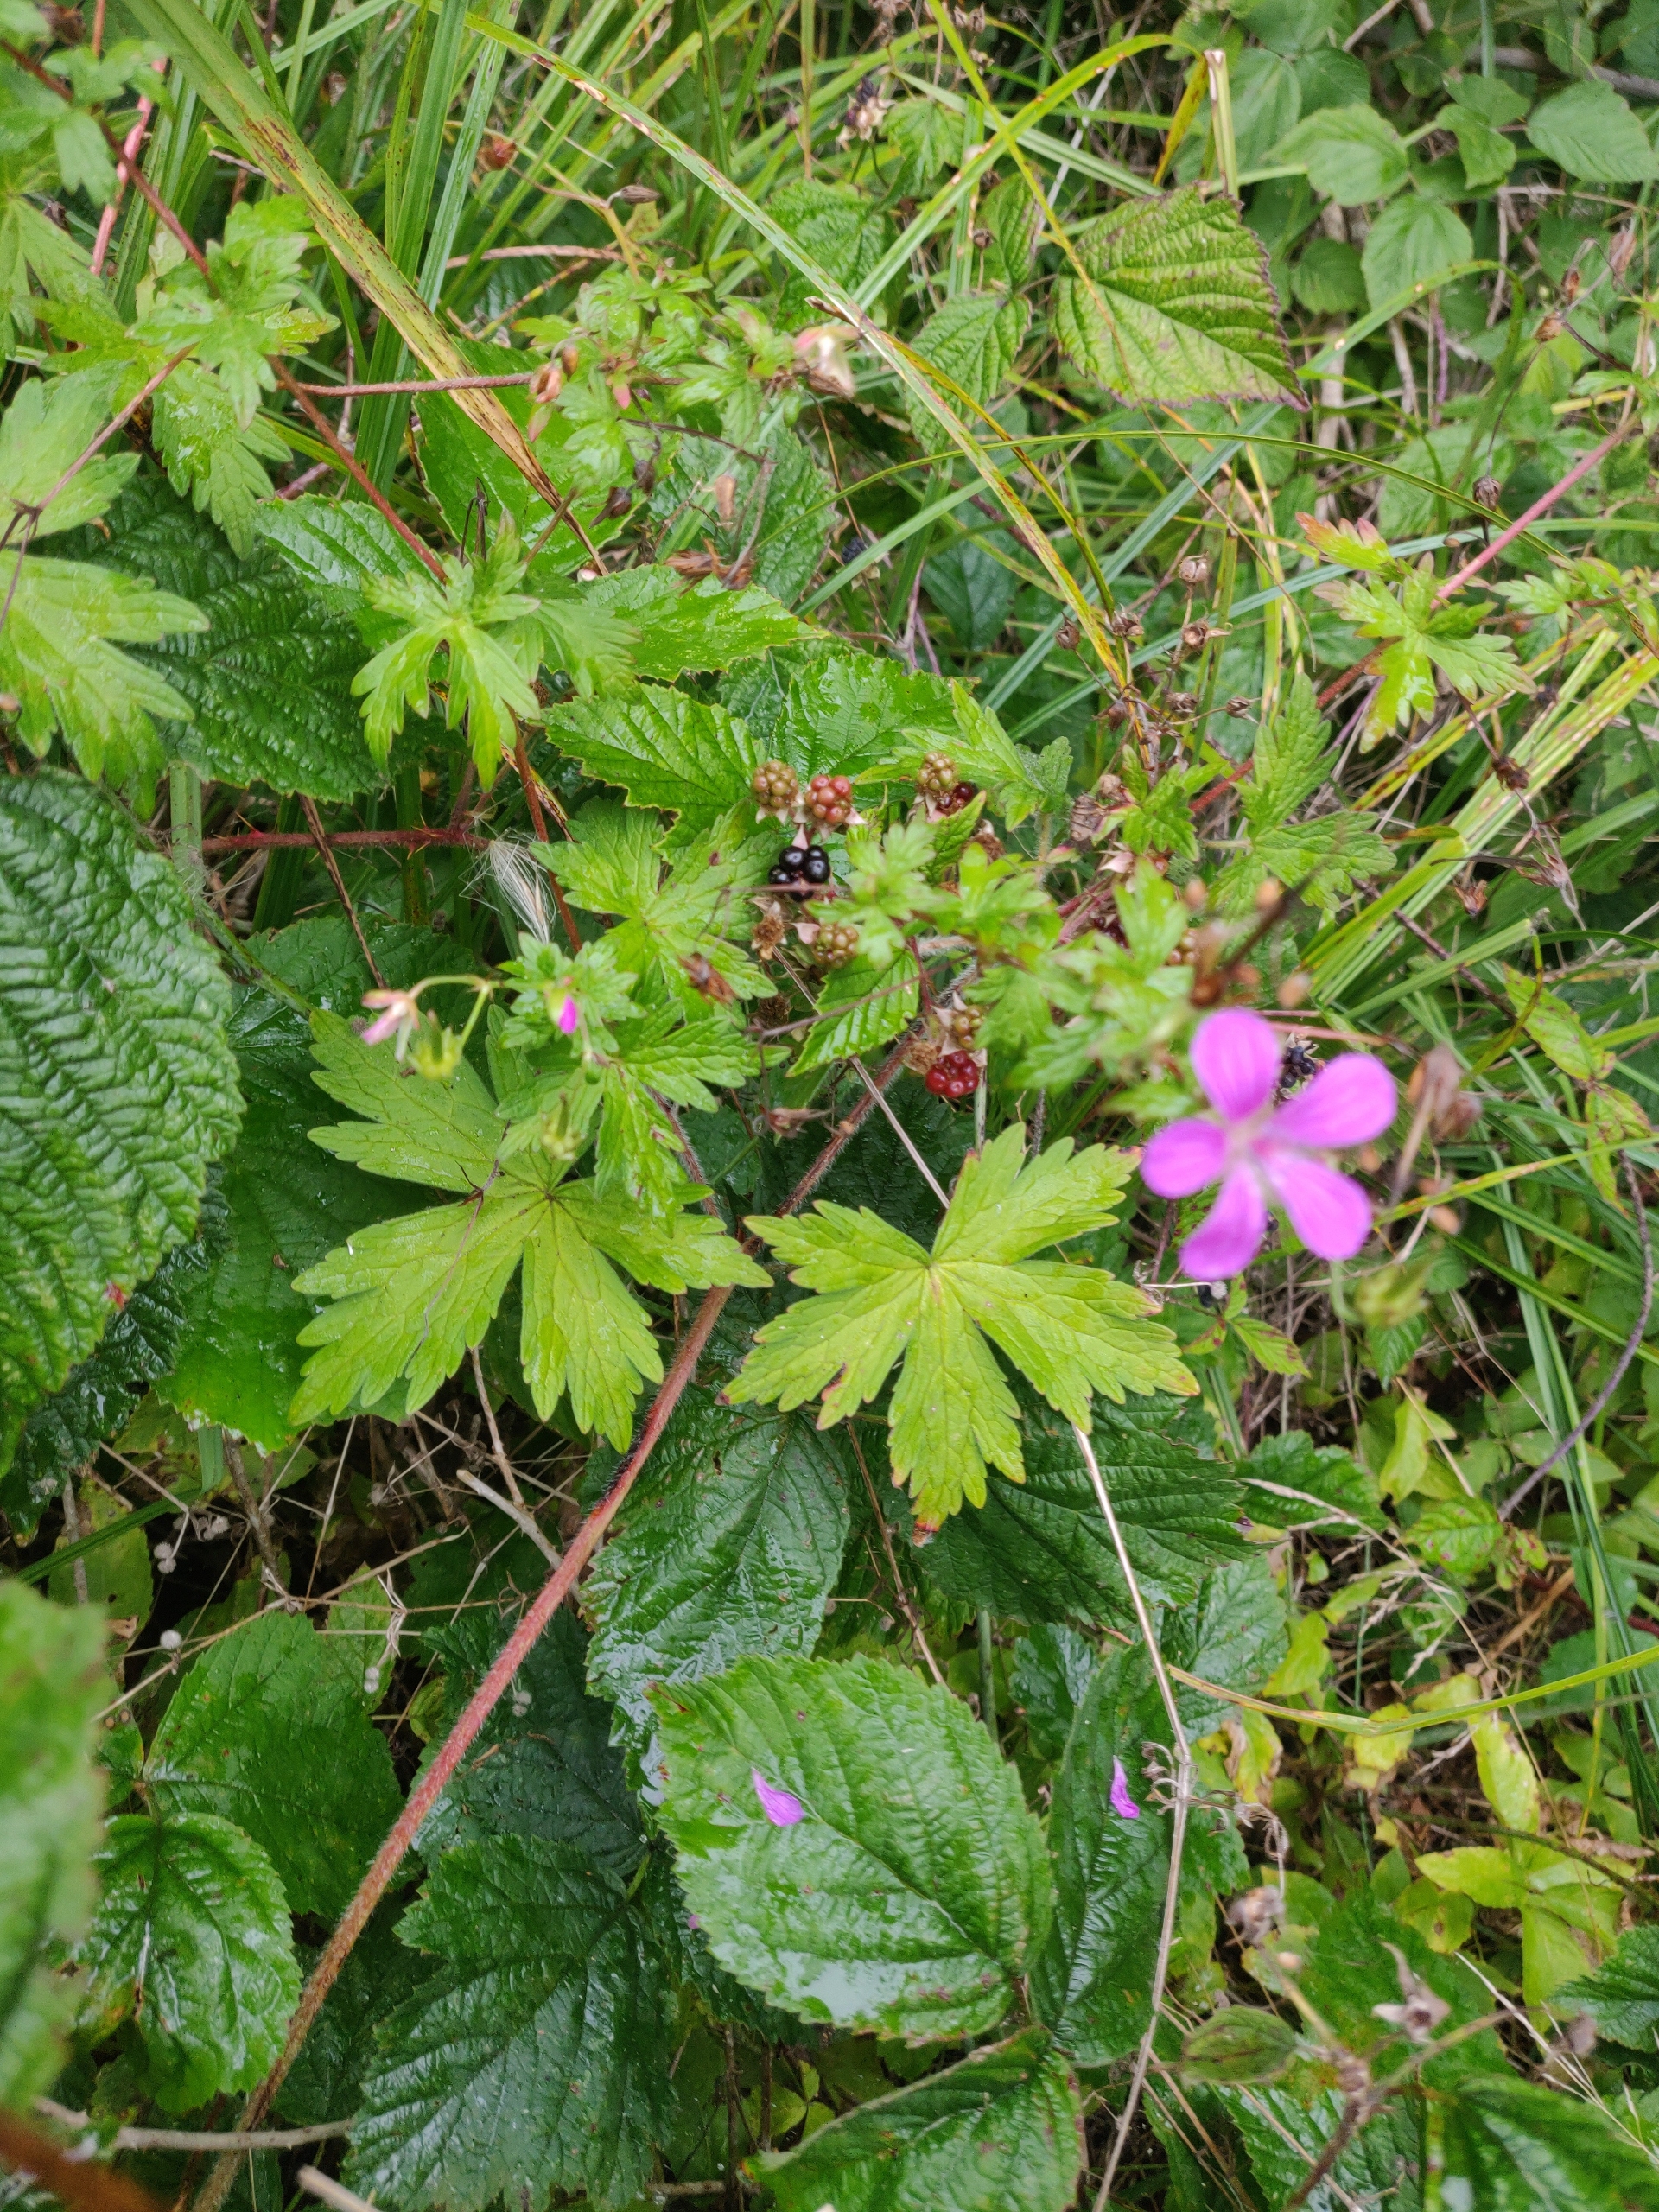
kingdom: Plantae
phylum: Tracheophyta
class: Magnoliopsida
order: Geraniales
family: Geraniaceae
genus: Geranium
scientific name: Geranium palustre
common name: Kær-storkenæb
